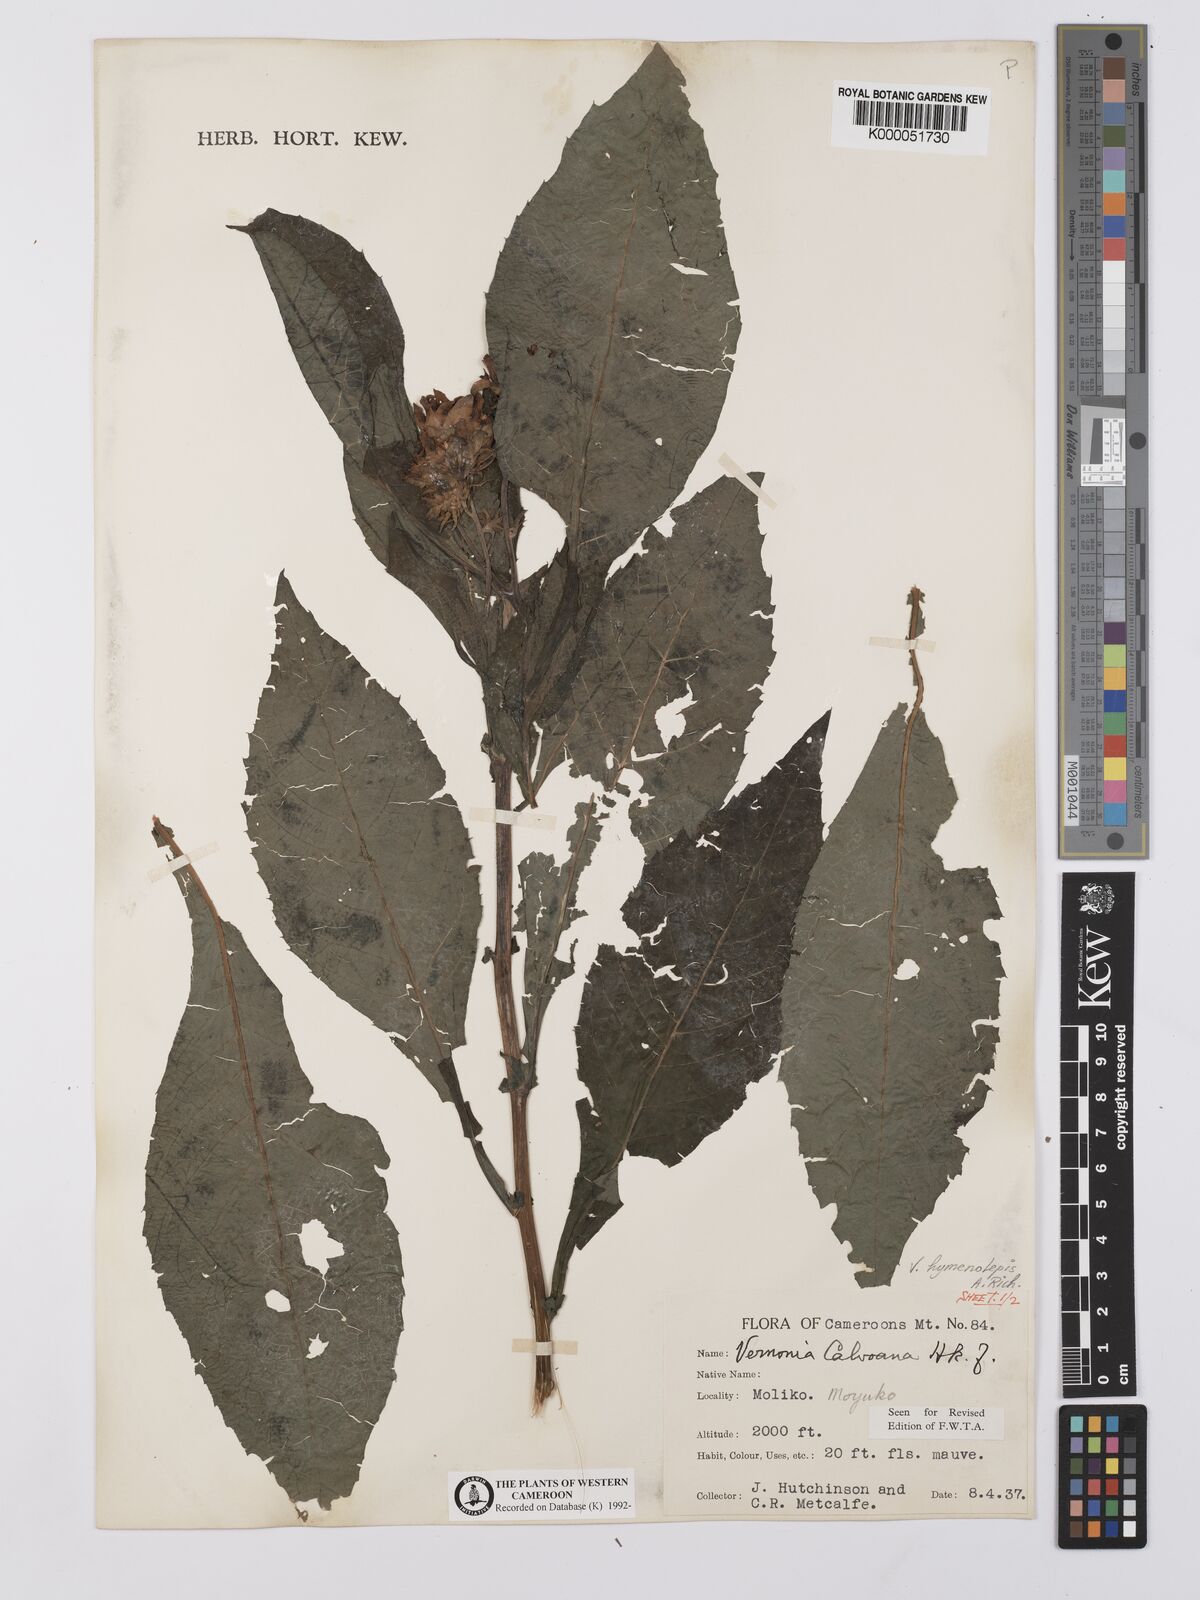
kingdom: Plantae
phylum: Tracheophyta
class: Magnoliopsida
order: Asterales
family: Asteraceae
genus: Baccharoides
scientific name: Baccharoides hymenolepis
